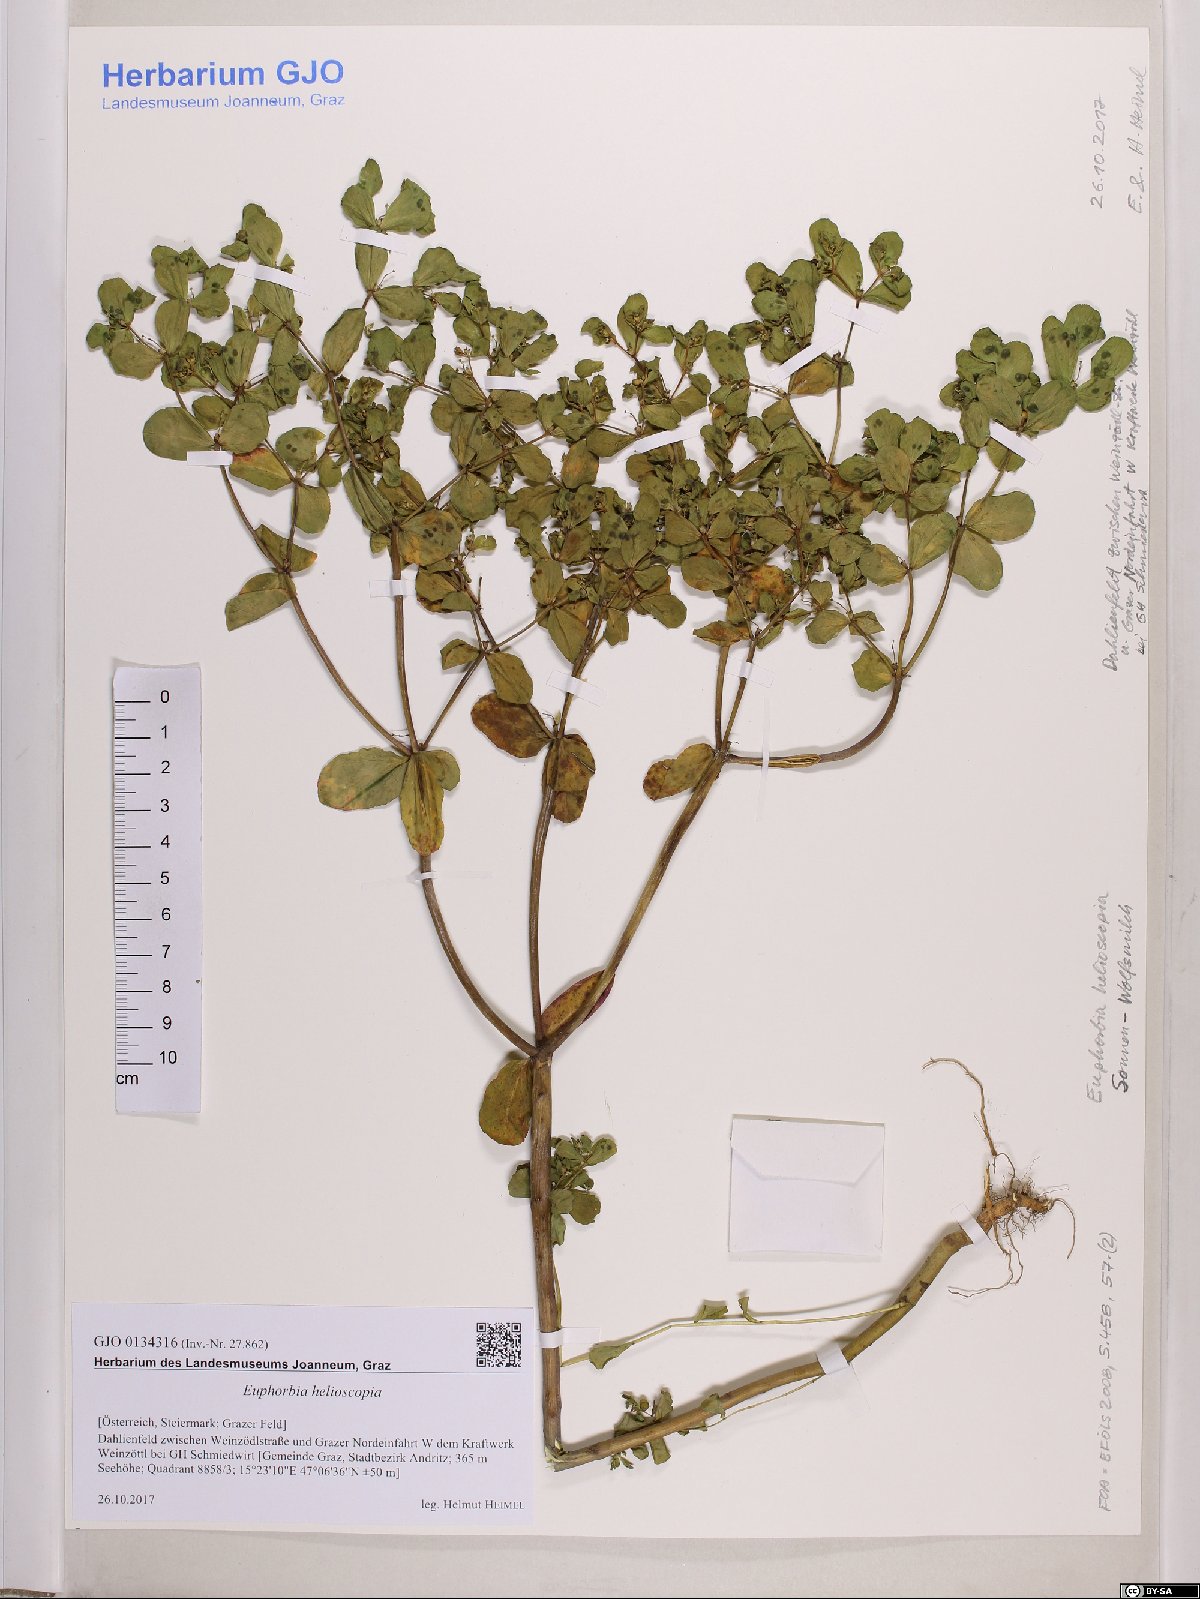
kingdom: Plantae
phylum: Tracheophyta
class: Magnoliopsida
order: Malpighiales
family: Euphorbiaceae
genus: Euphorbia
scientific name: Euphorbia helioscopia
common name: Sun spurge
